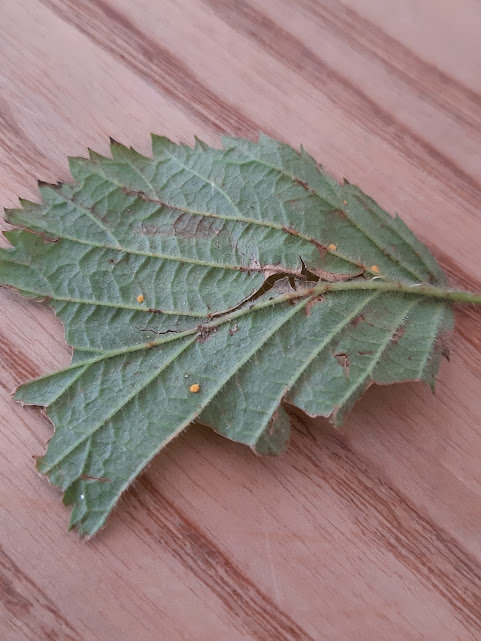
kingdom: Fungi
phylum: Basidiomycota
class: Pucciniomycetes
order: Pucciniales
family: Phragmidiaceae
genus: Phragmidium
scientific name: Phragmidium
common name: flercellerust
